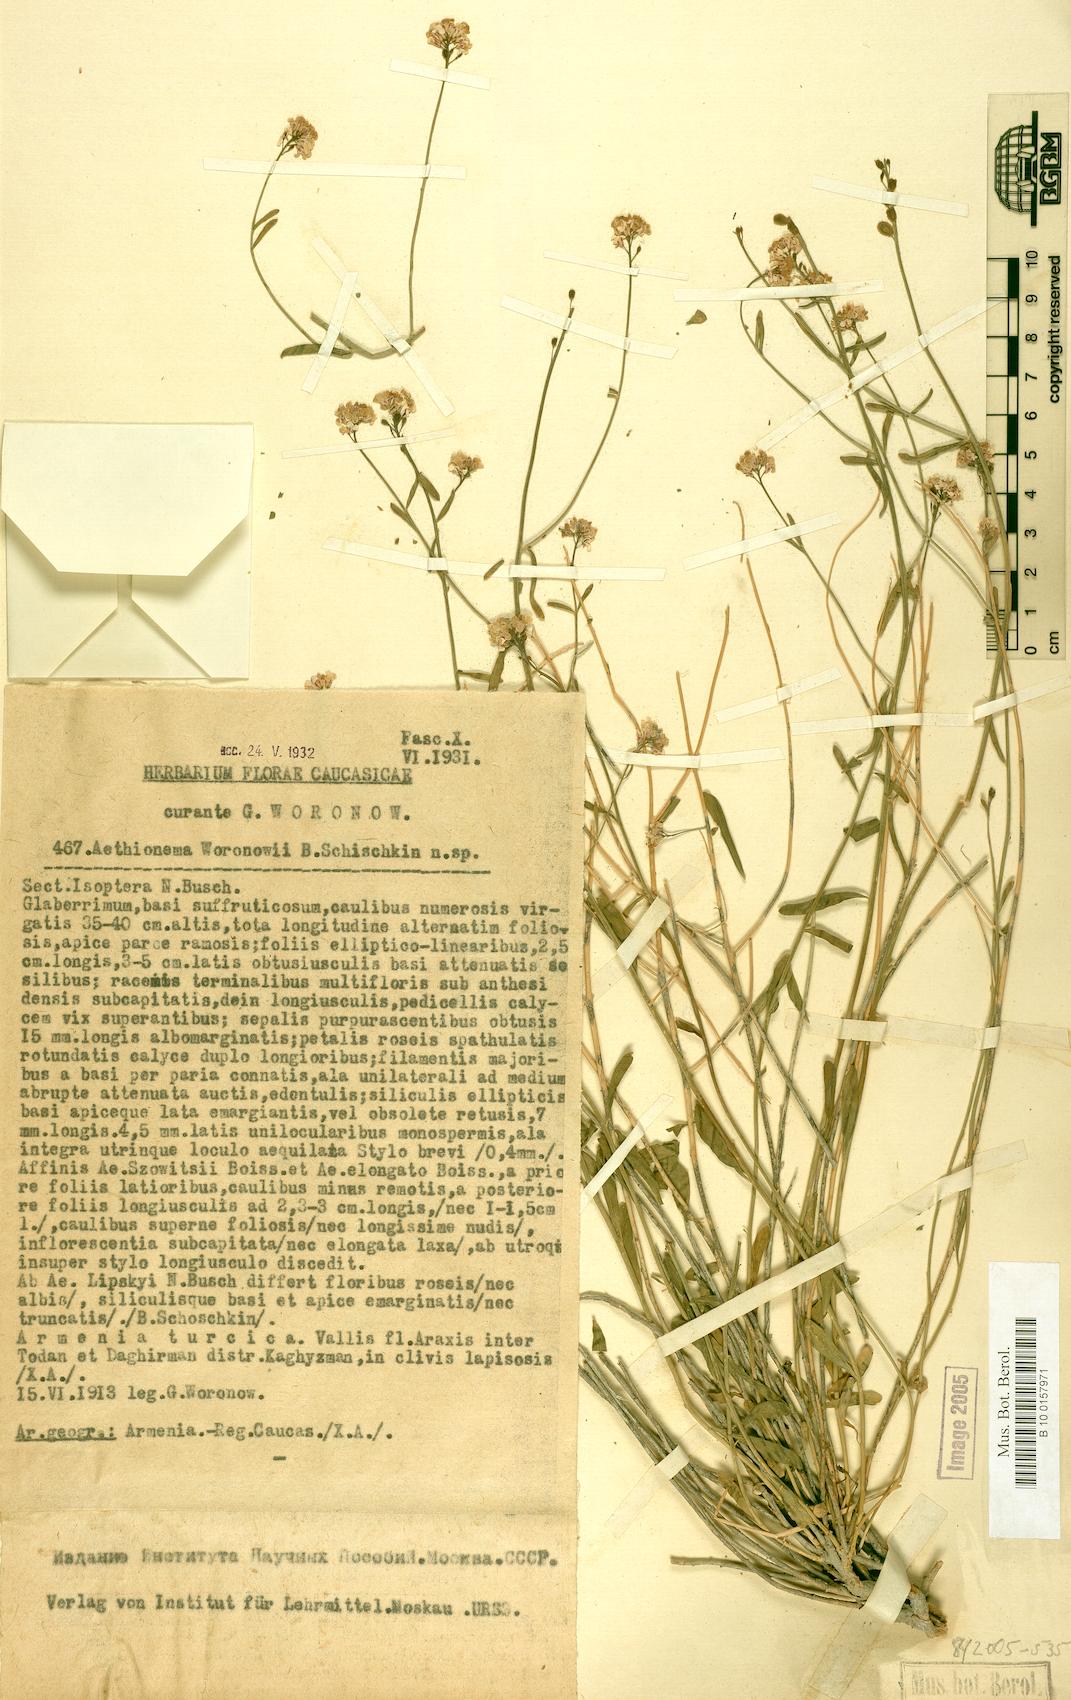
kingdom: Plantae
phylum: Tracheophyta
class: Magnoliopsida
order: Brassicales
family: Brassicaceae
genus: Aethionema
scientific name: Aethionema virgatum
